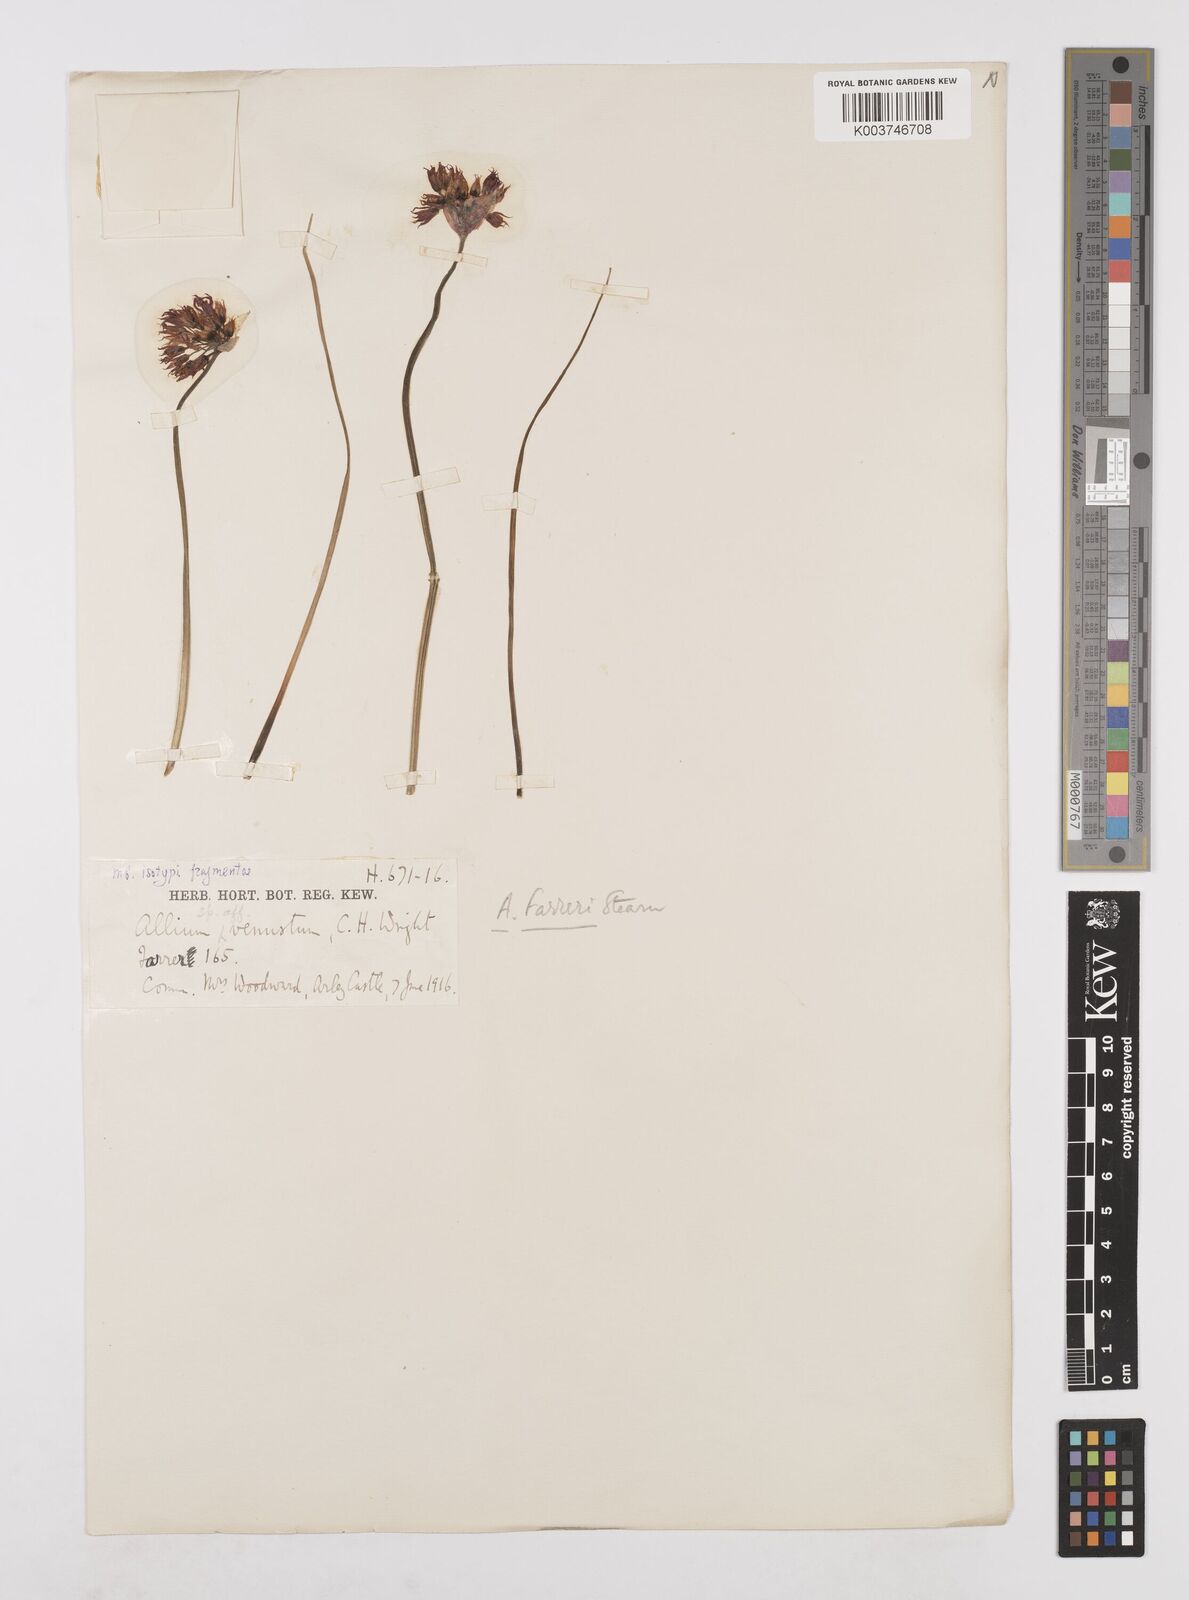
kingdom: Plantae
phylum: Tracheophyta
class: Liliopsida
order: Asparagales
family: Amaryllidaceae
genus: Allium
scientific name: Allium farreri
